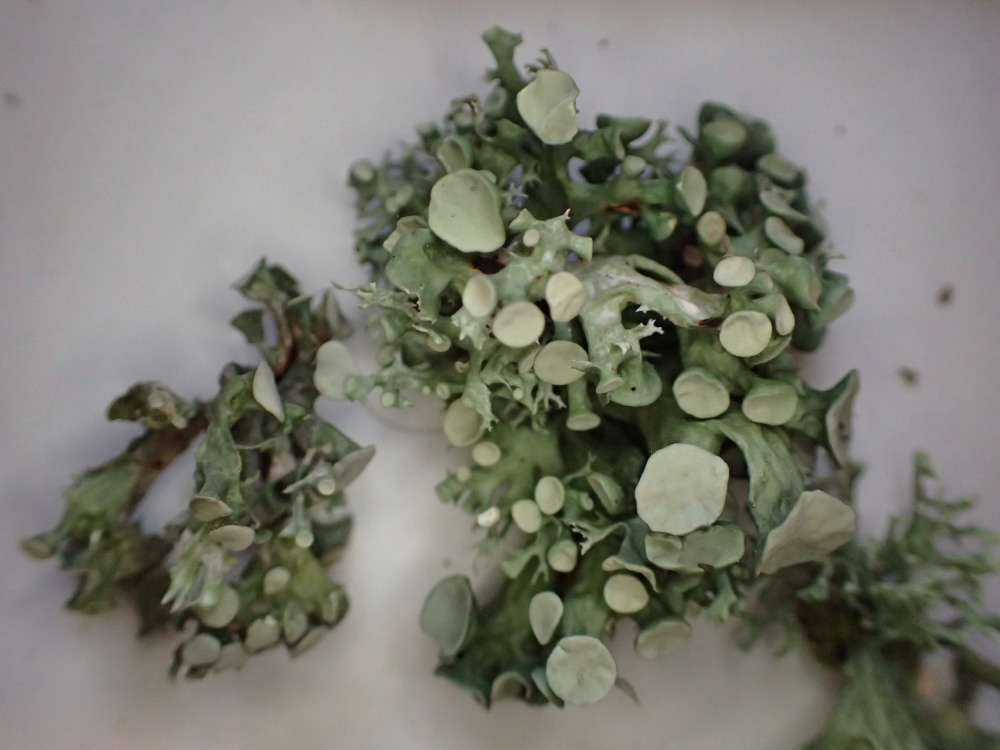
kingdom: Fungi
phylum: Ascomycota
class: Lecanoromycetes
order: Lecanorales
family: Ramalinaceae
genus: Ramalina
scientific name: Ramalina fastigiata
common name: tue-grenlav
